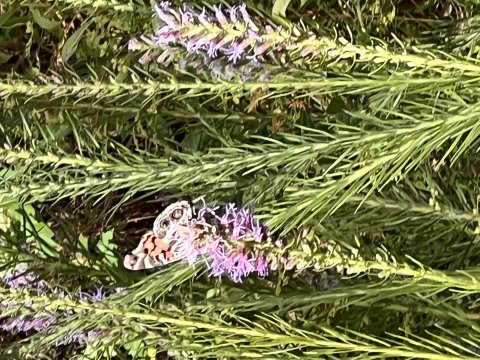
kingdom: Animalia
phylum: Arthropoda
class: Insecta
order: Lepidoptera
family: Nymphalidae
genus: Vanessa
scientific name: Vanessa virginiensis
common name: American Lady
